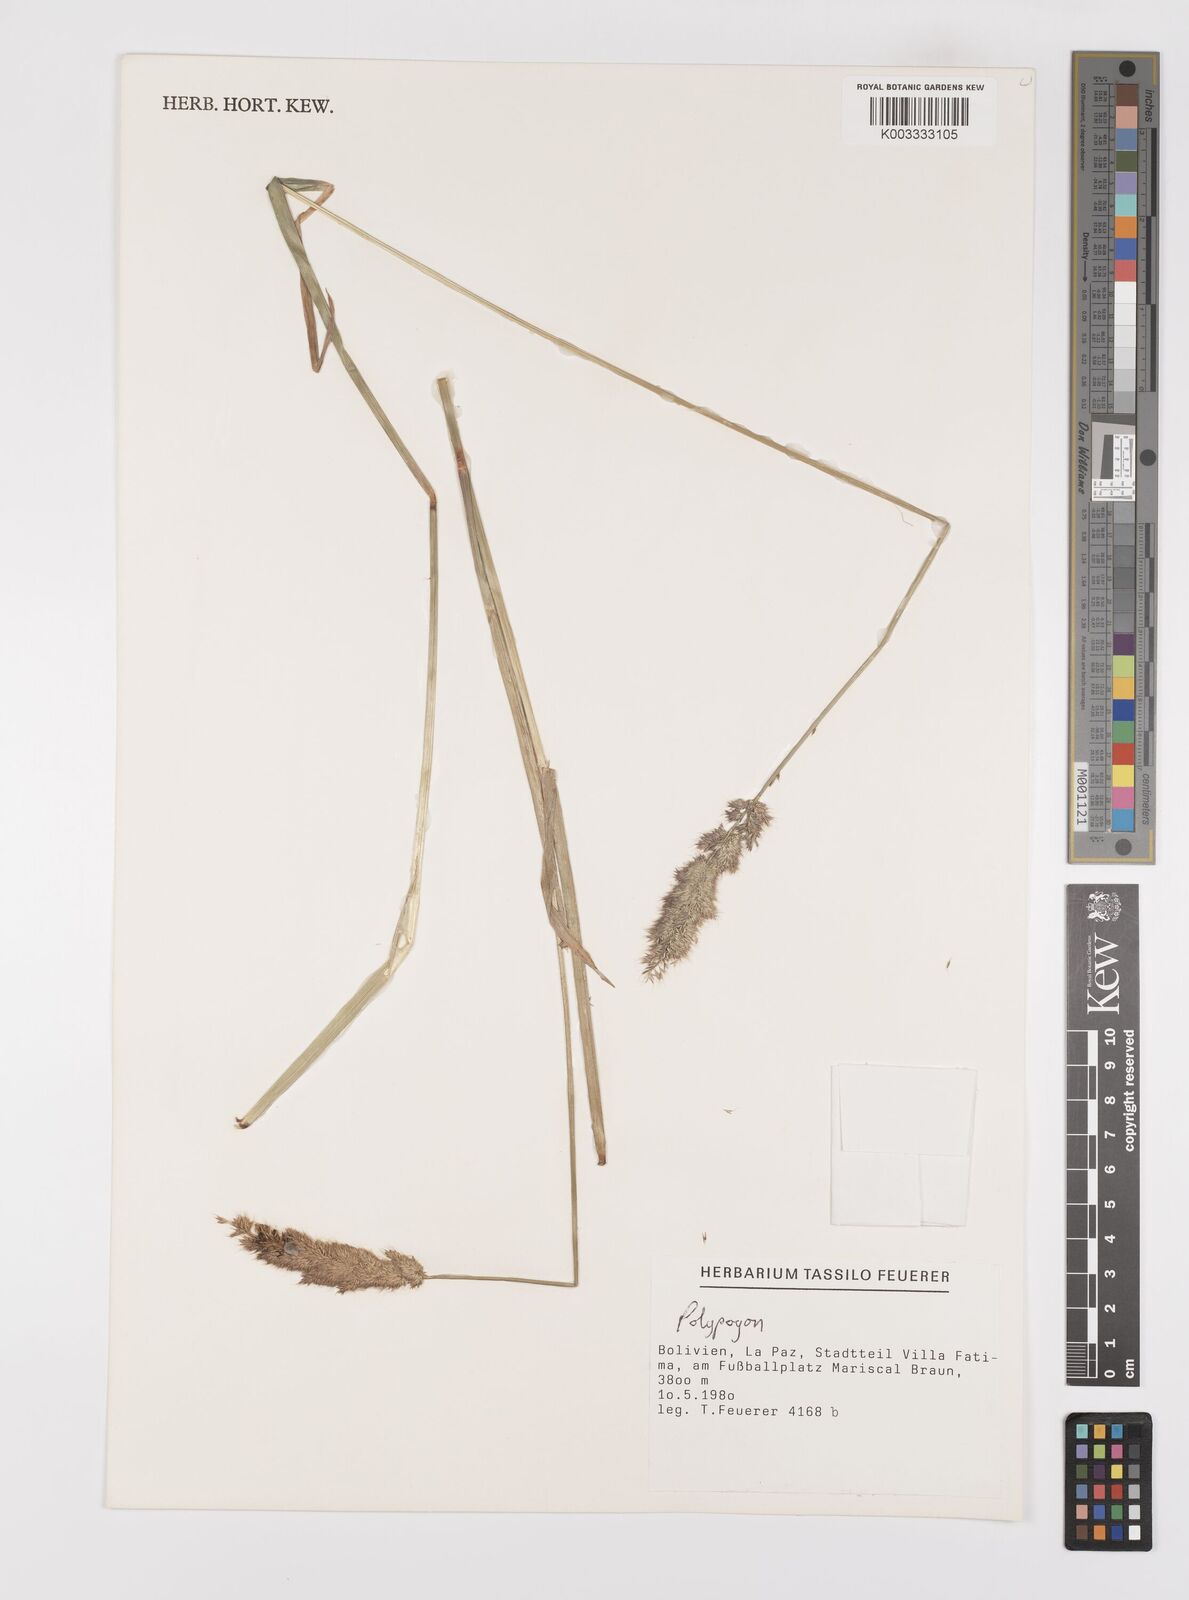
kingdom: Plantae
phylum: Tracheophyta
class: Liliopsida
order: Poales
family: Poaceae
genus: Polypogon
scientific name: Polypogon interruptus
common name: Ditch polypogon
